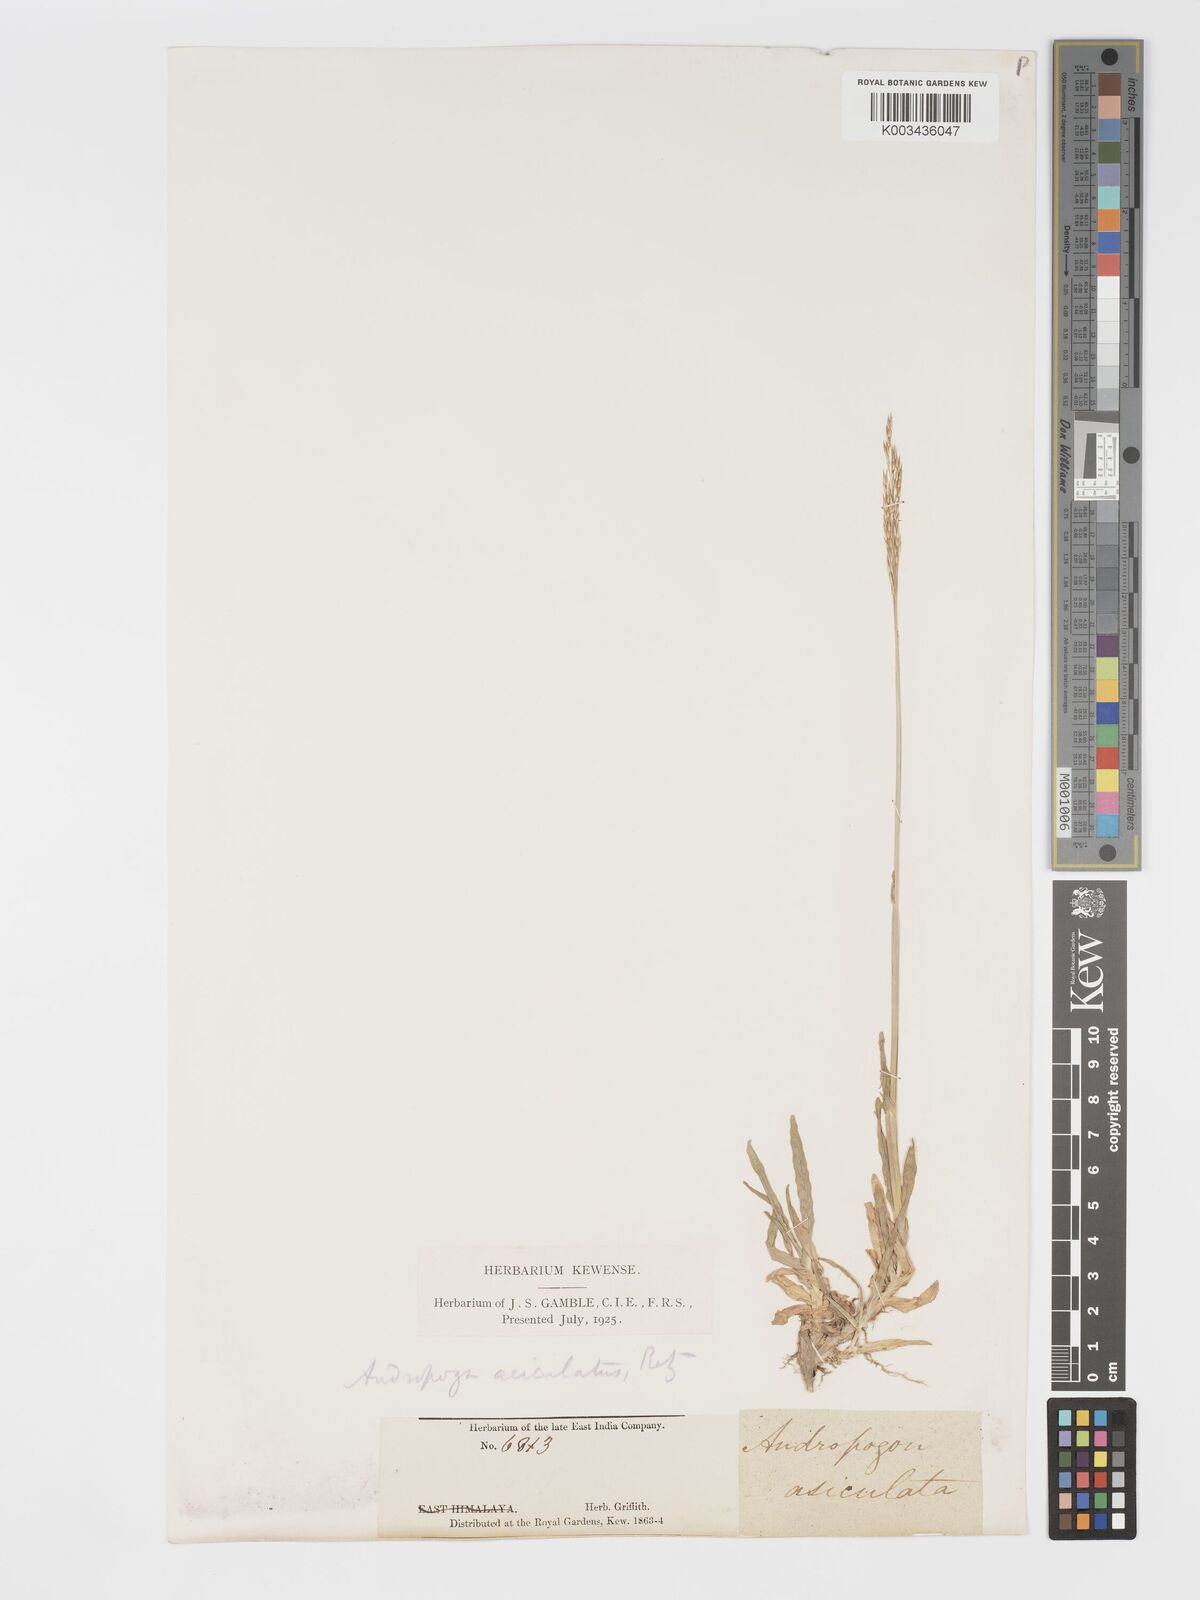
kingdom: Plantae
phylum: Tracheophyta
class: Liliopsida
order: Poales
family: Poaceae
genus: Chrysopogon
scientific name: Chrysopogon aciculatus
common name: Pilipiliula
